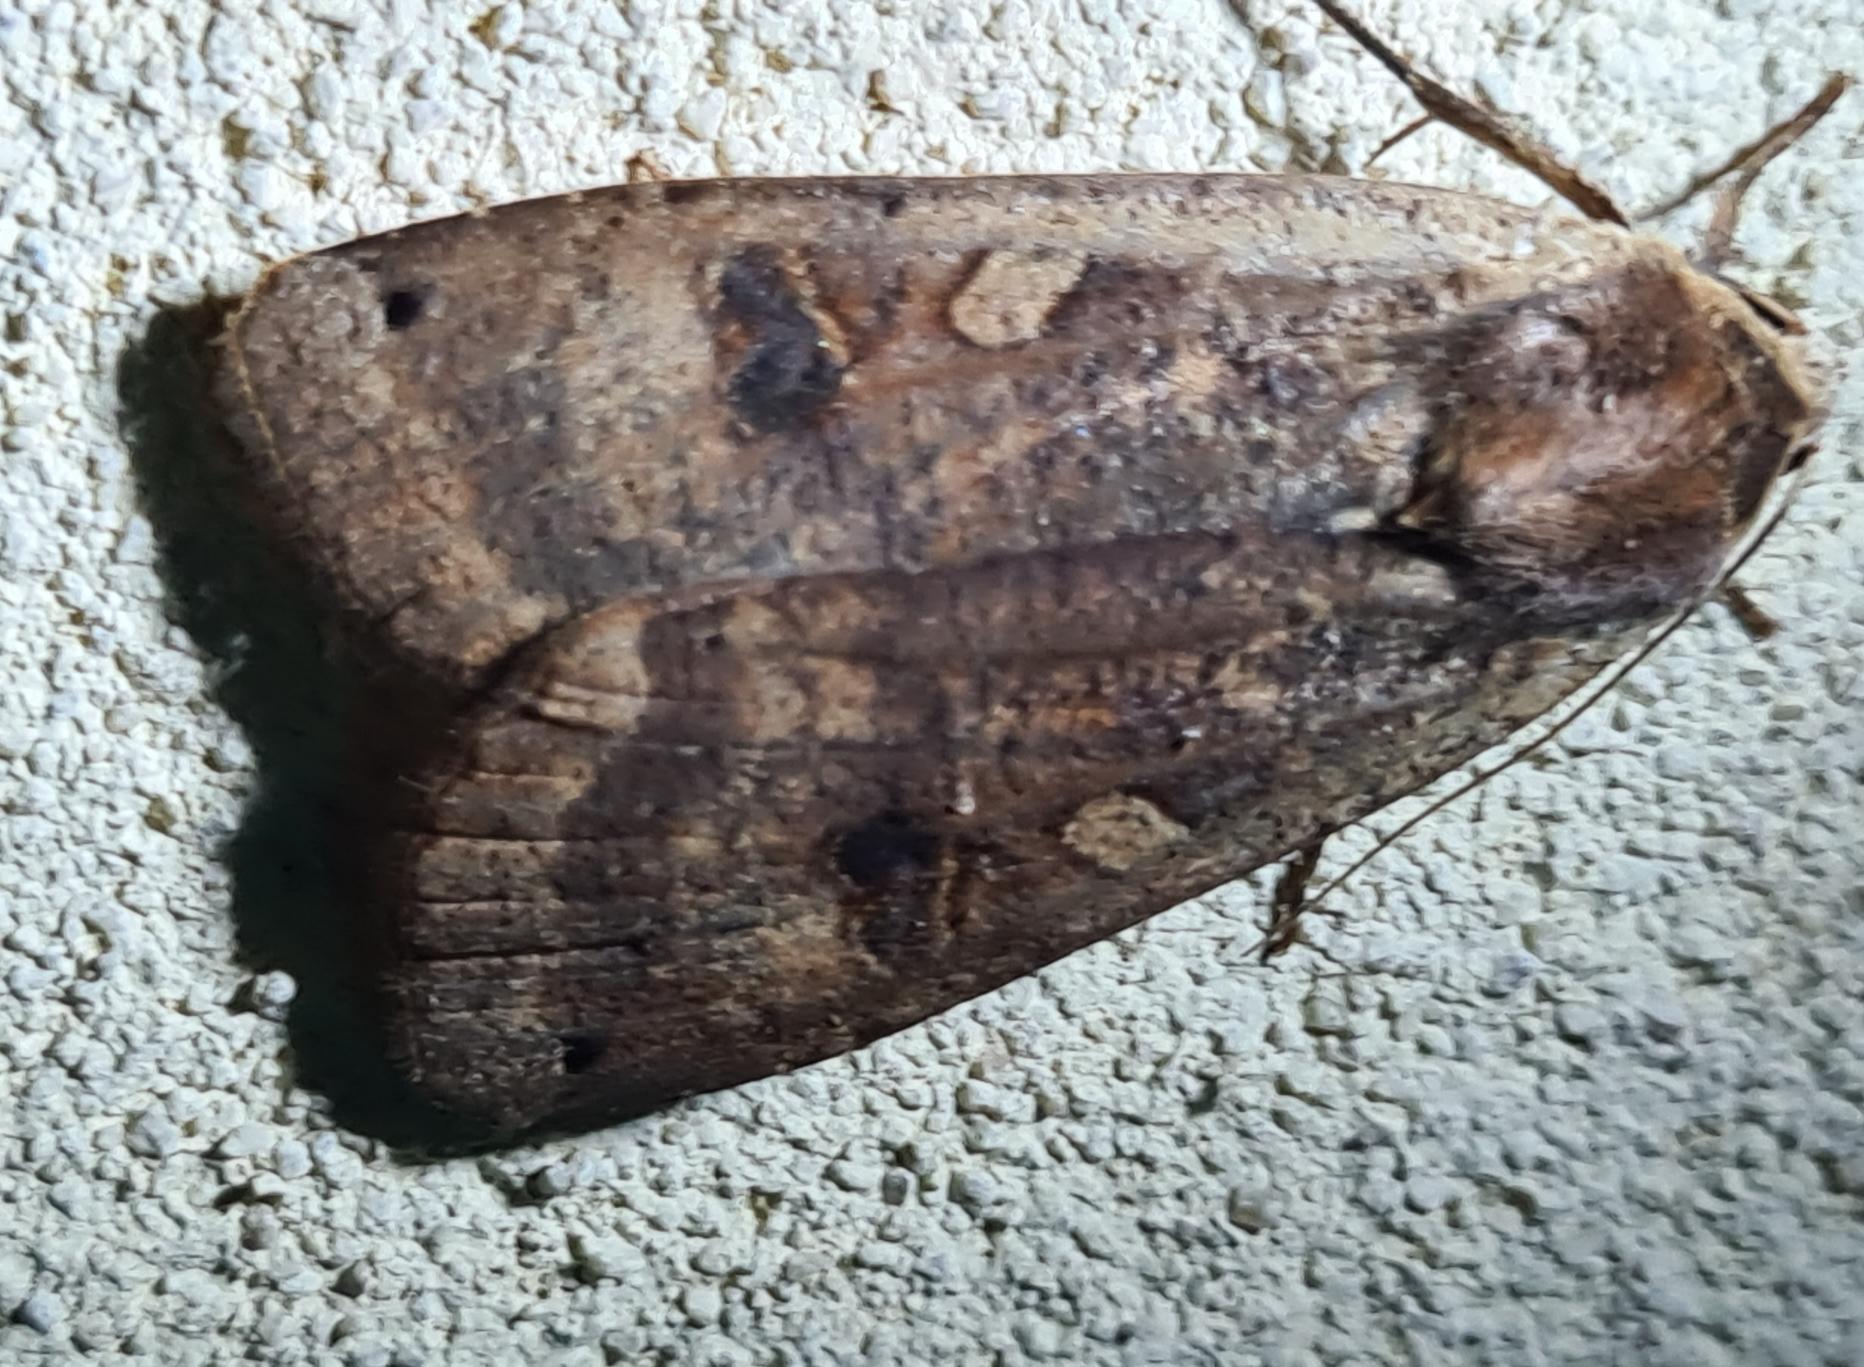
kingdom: Animalia
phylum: Arthropoda
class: Insecta
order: Lepidoptera
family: Noctuidae
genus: Noctua
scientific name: Noctua pronuba
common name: Stor smutugle
